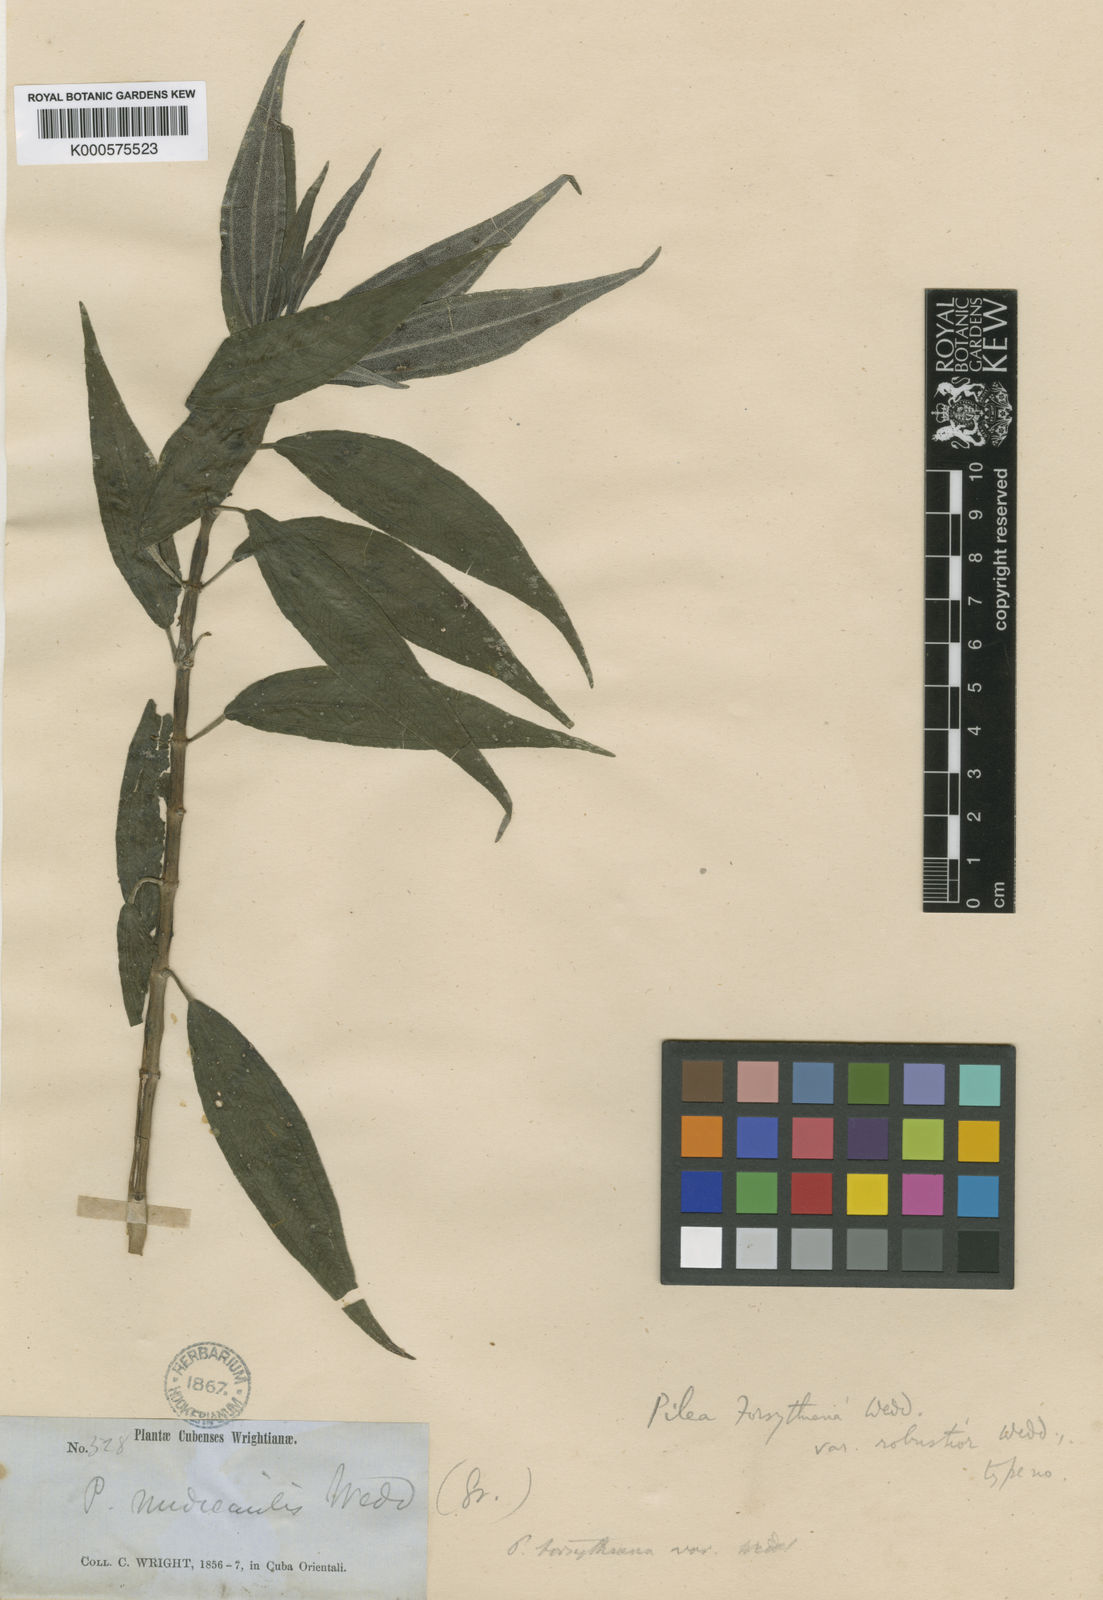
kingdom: Plantae
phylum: Tracheophyta
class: Magnoliopsida
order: Rosales
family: Urticaceae
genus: Pilea
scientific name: Pilea forsythiana
